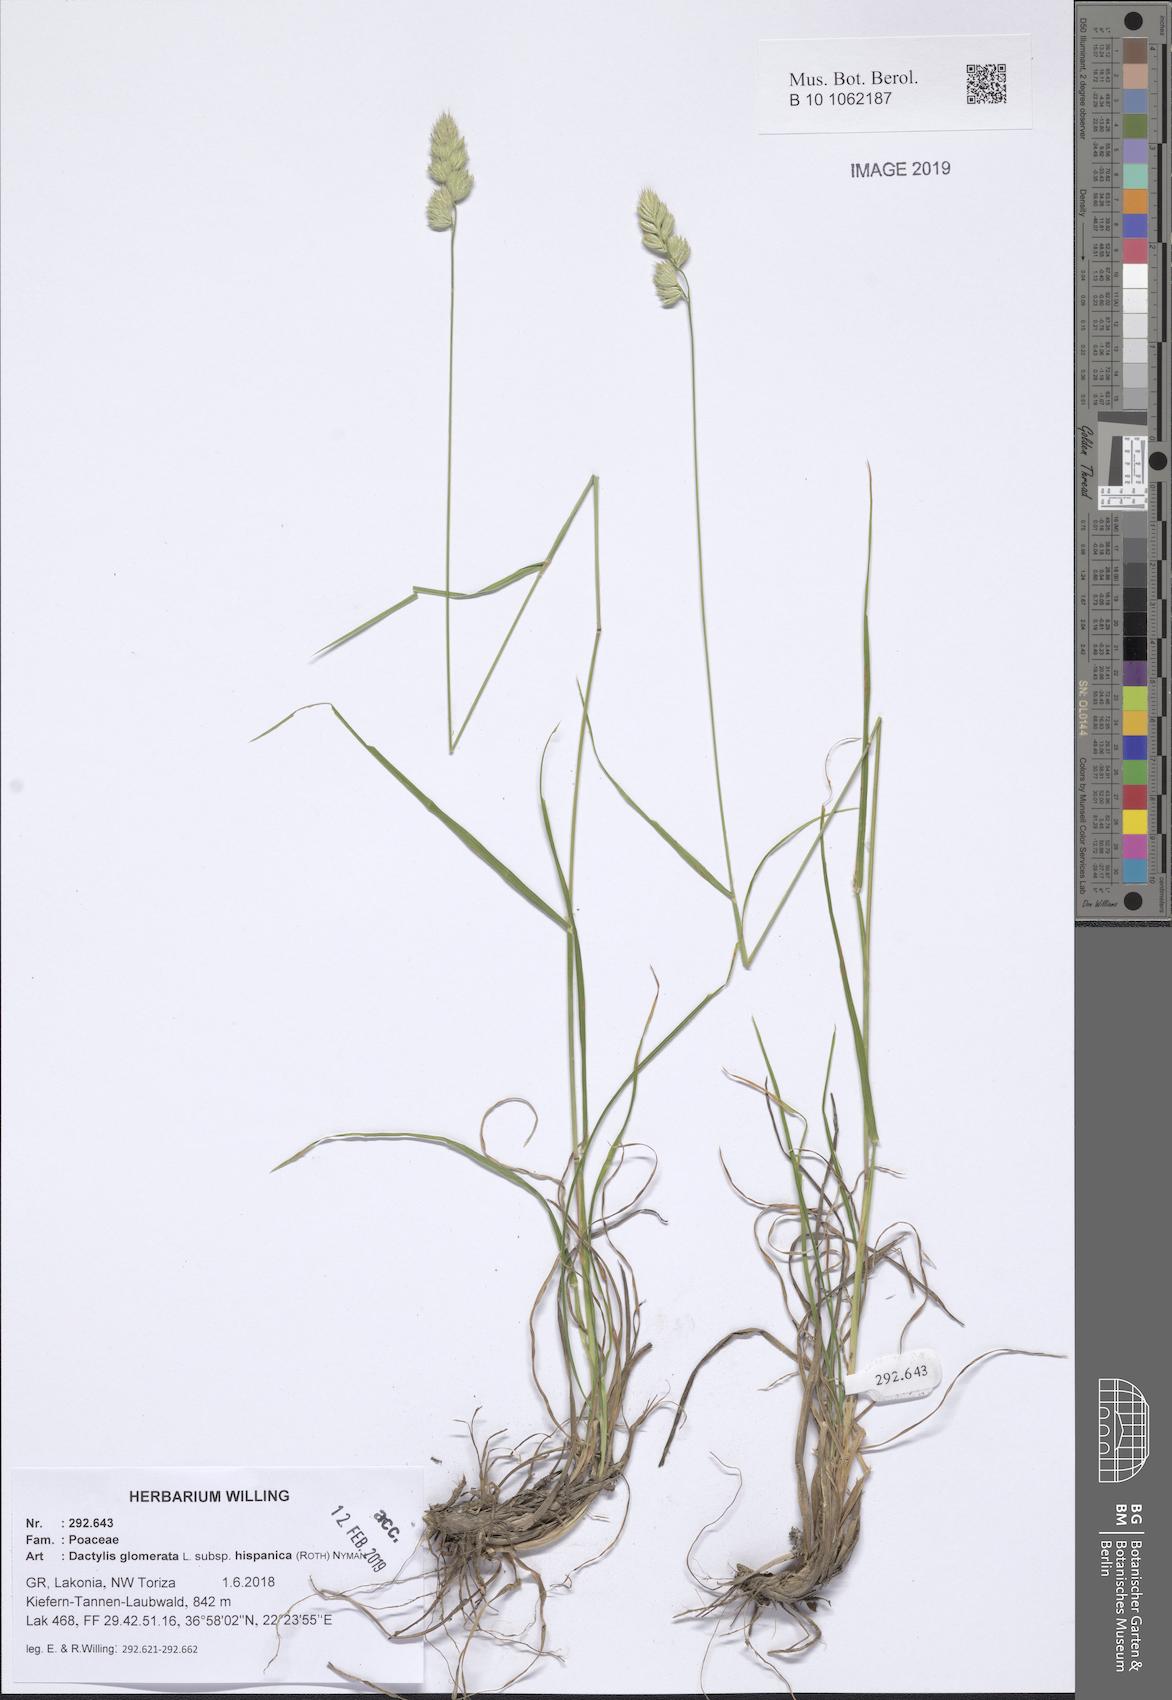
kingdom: Plantae
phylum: Tracheophyta
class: Liliopsida
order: Poales
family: Poaceae
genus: Dactylis
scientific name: Dactylis glomerata
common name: Orchardgrass
